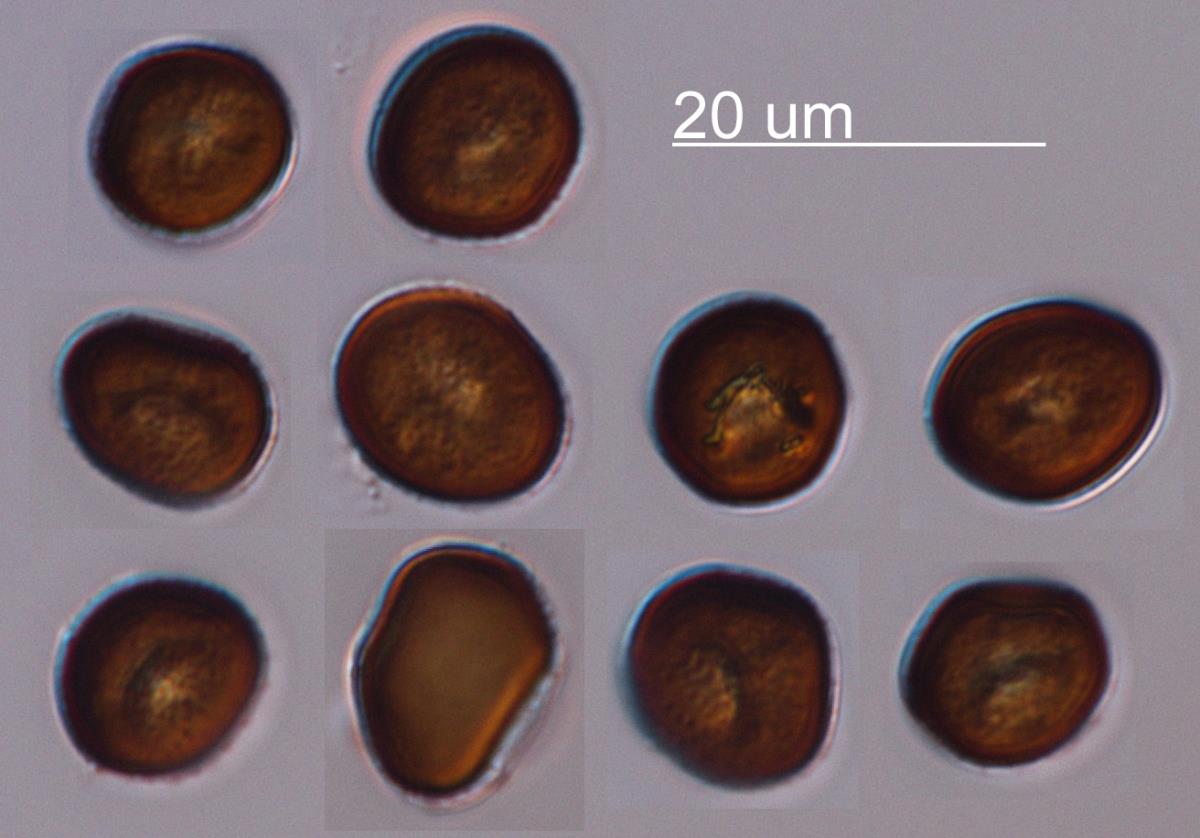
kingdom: Fungi
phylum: Basidiomycota
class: Ustilaginomycetes
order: Ustilaginales
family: Ustilaginaceae
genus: Ustilago
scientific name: Ustilago agropyri
